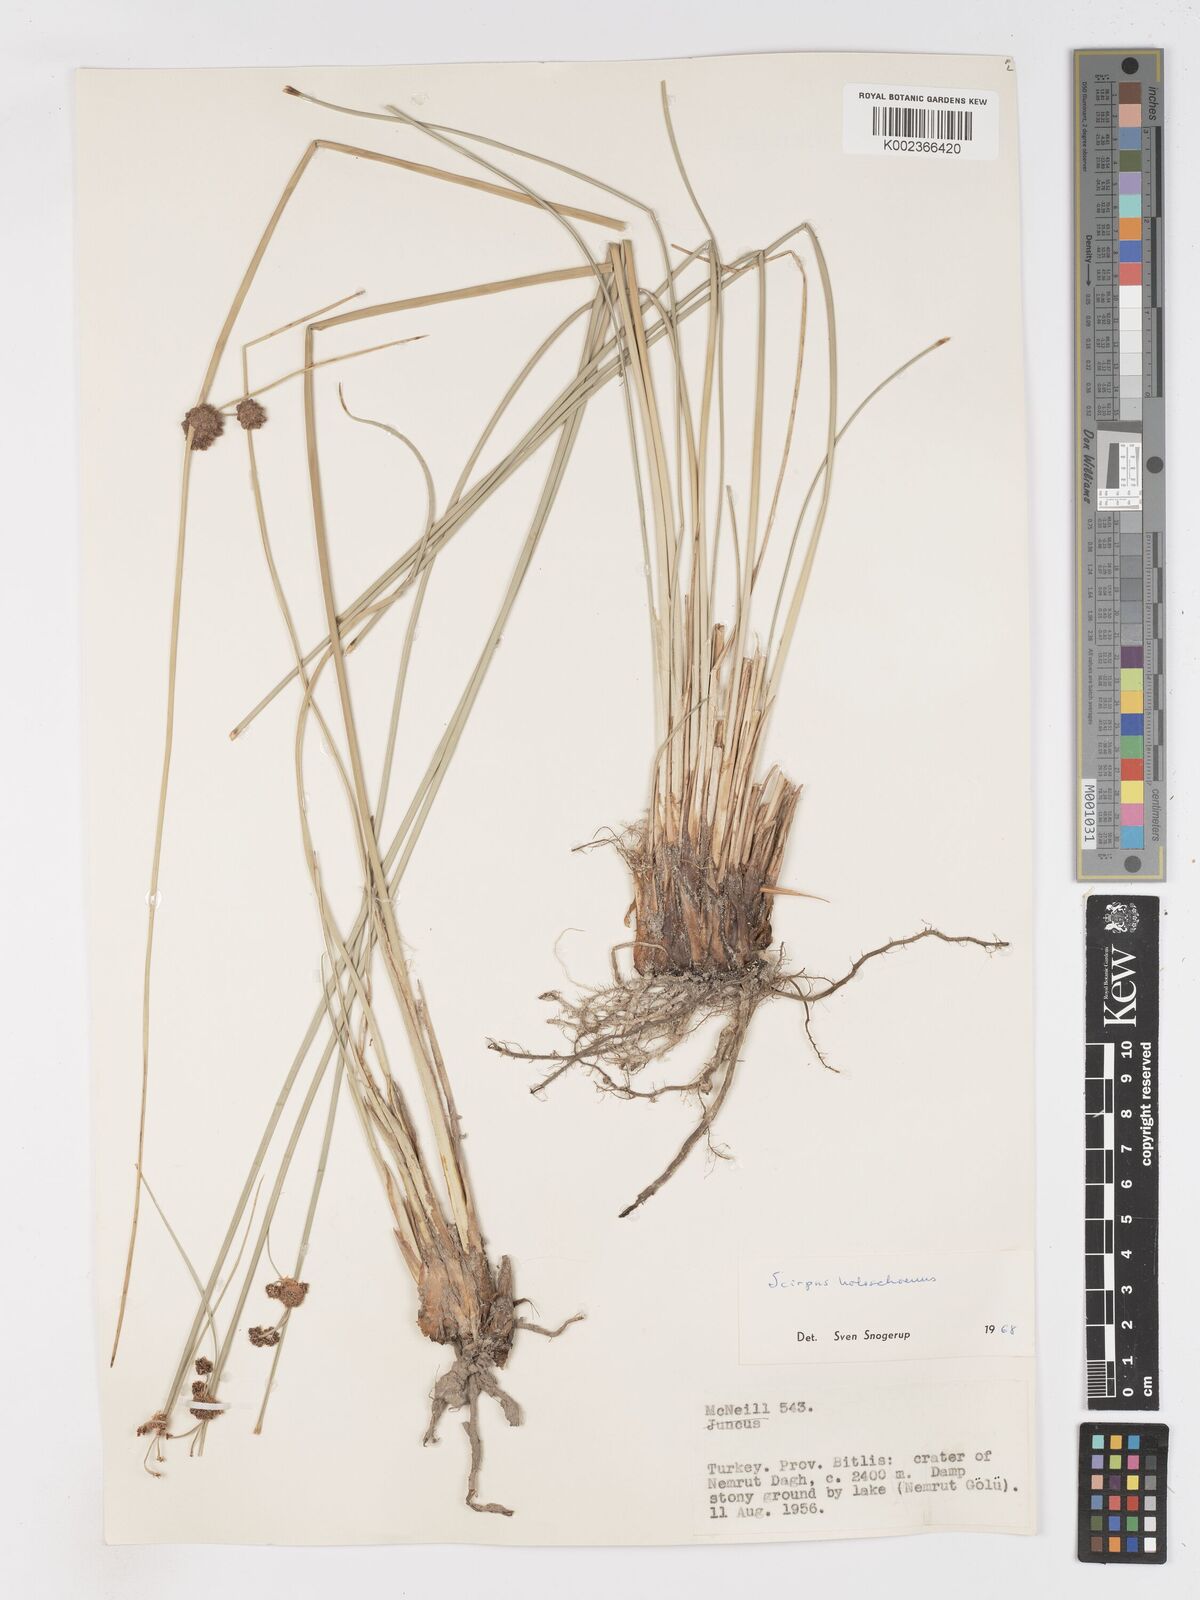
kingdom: Plantae
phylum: Tracheophyta
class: Liliopsida
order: Poales
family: Cyperaceae
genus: Scirpoides
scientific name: Scirpoides holoschoenus
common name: Round-headed club-rush
